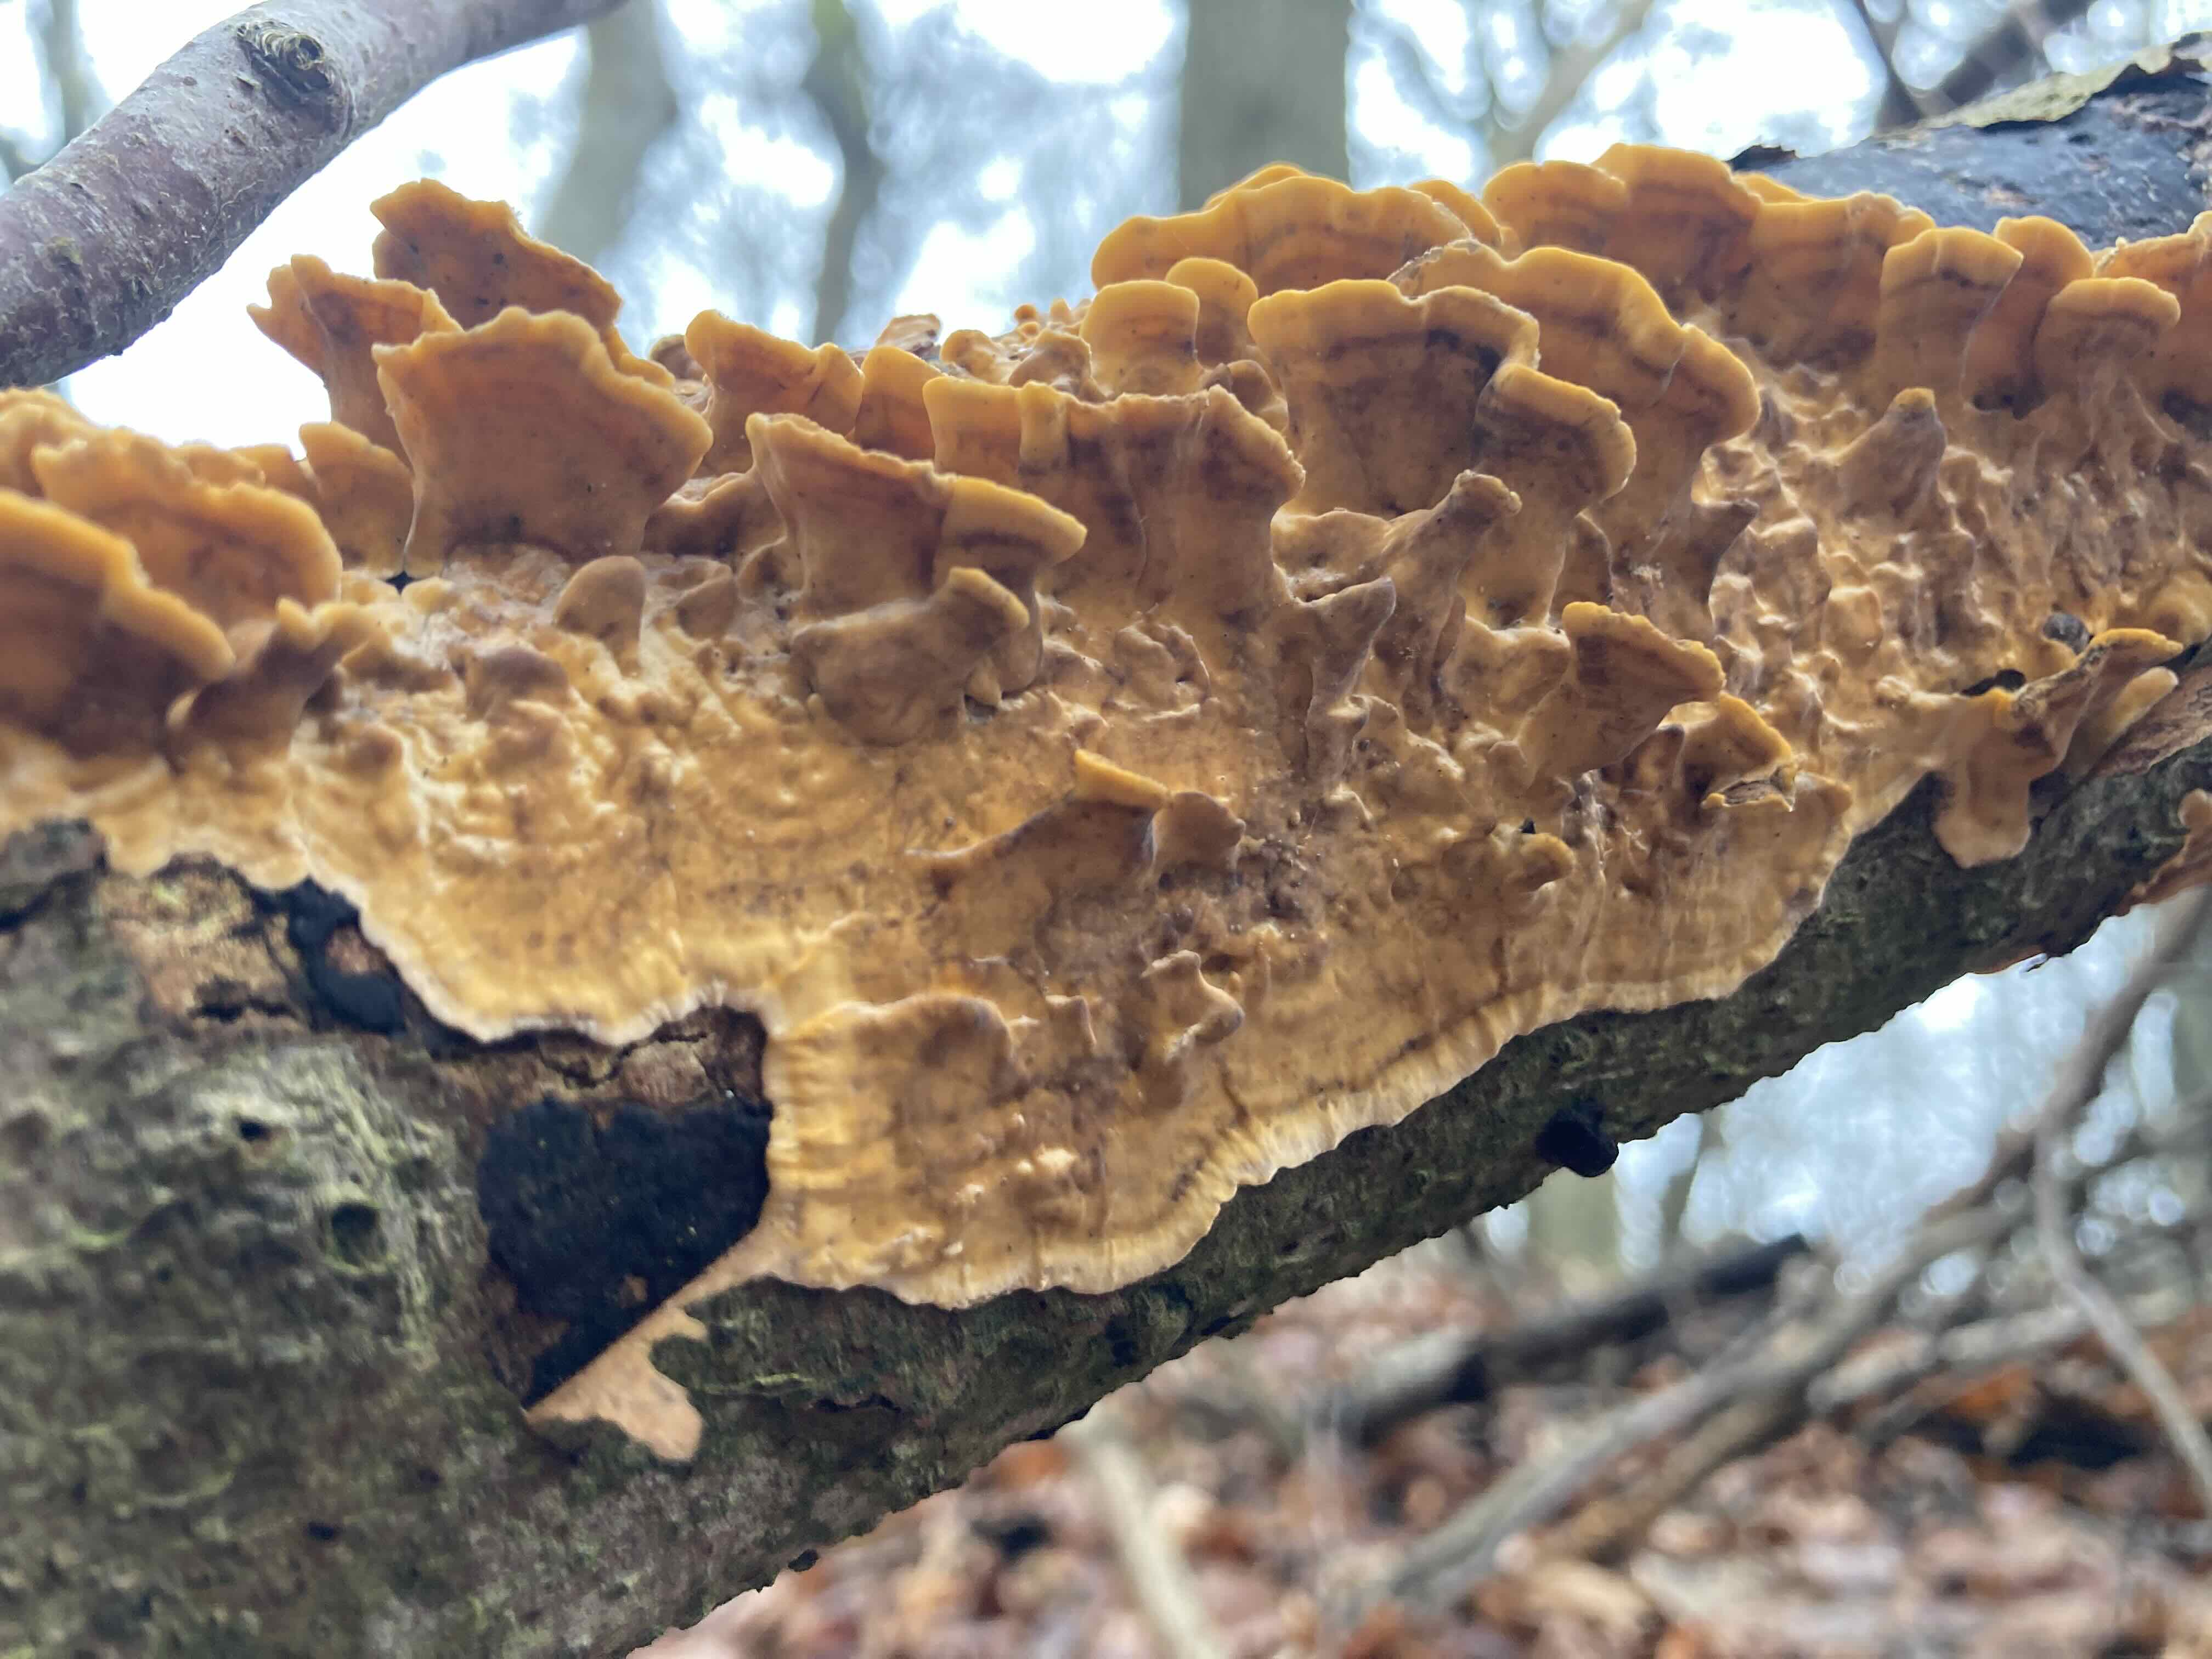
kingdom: Fungi
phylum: Basidiomycota
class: Agaricomycetes
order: Russulales
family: Stereaceae
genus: Stereum
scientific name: Stereum hirsutum
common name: håret lædersvamp
